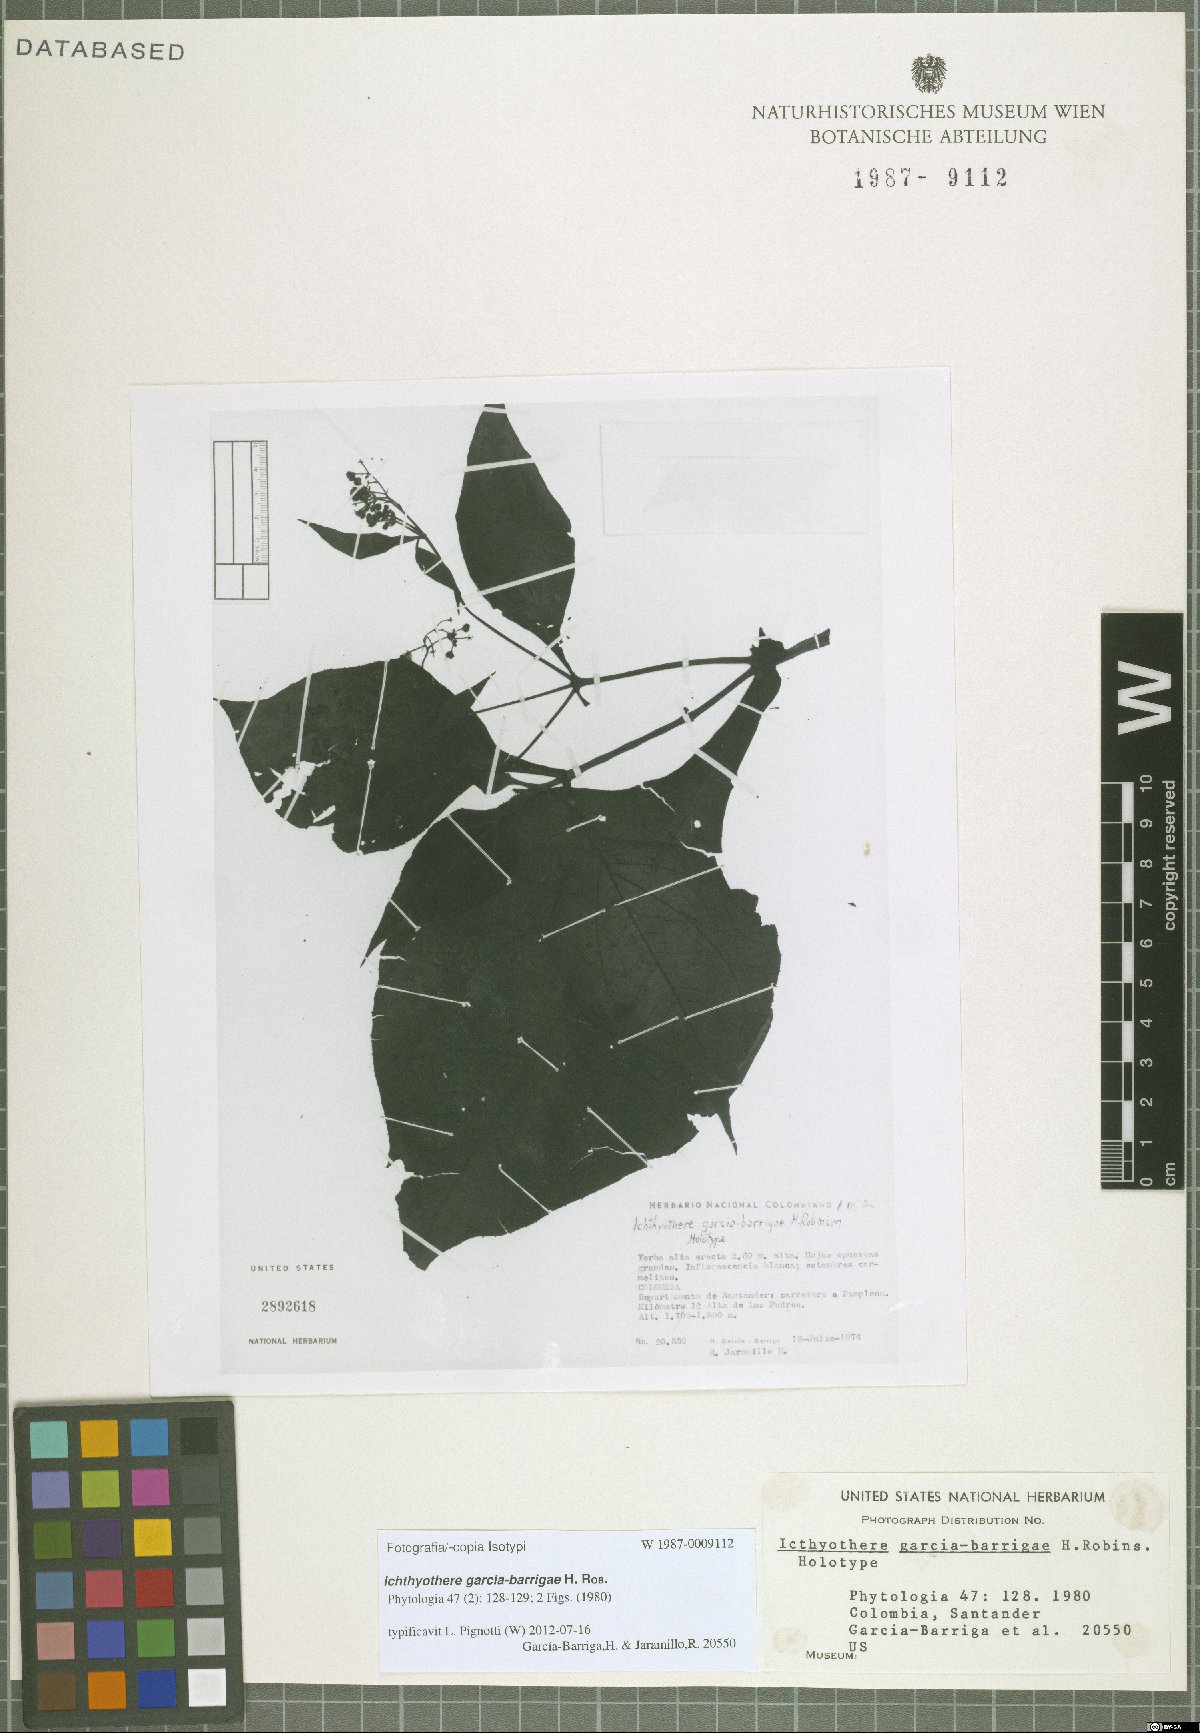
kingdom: Plantae
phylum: Tracheophyta
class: Magnoliopsida
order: Asterales
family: Asteraceae
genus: Ichthyothere
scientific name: Ichthyothere garcia-barrigae
